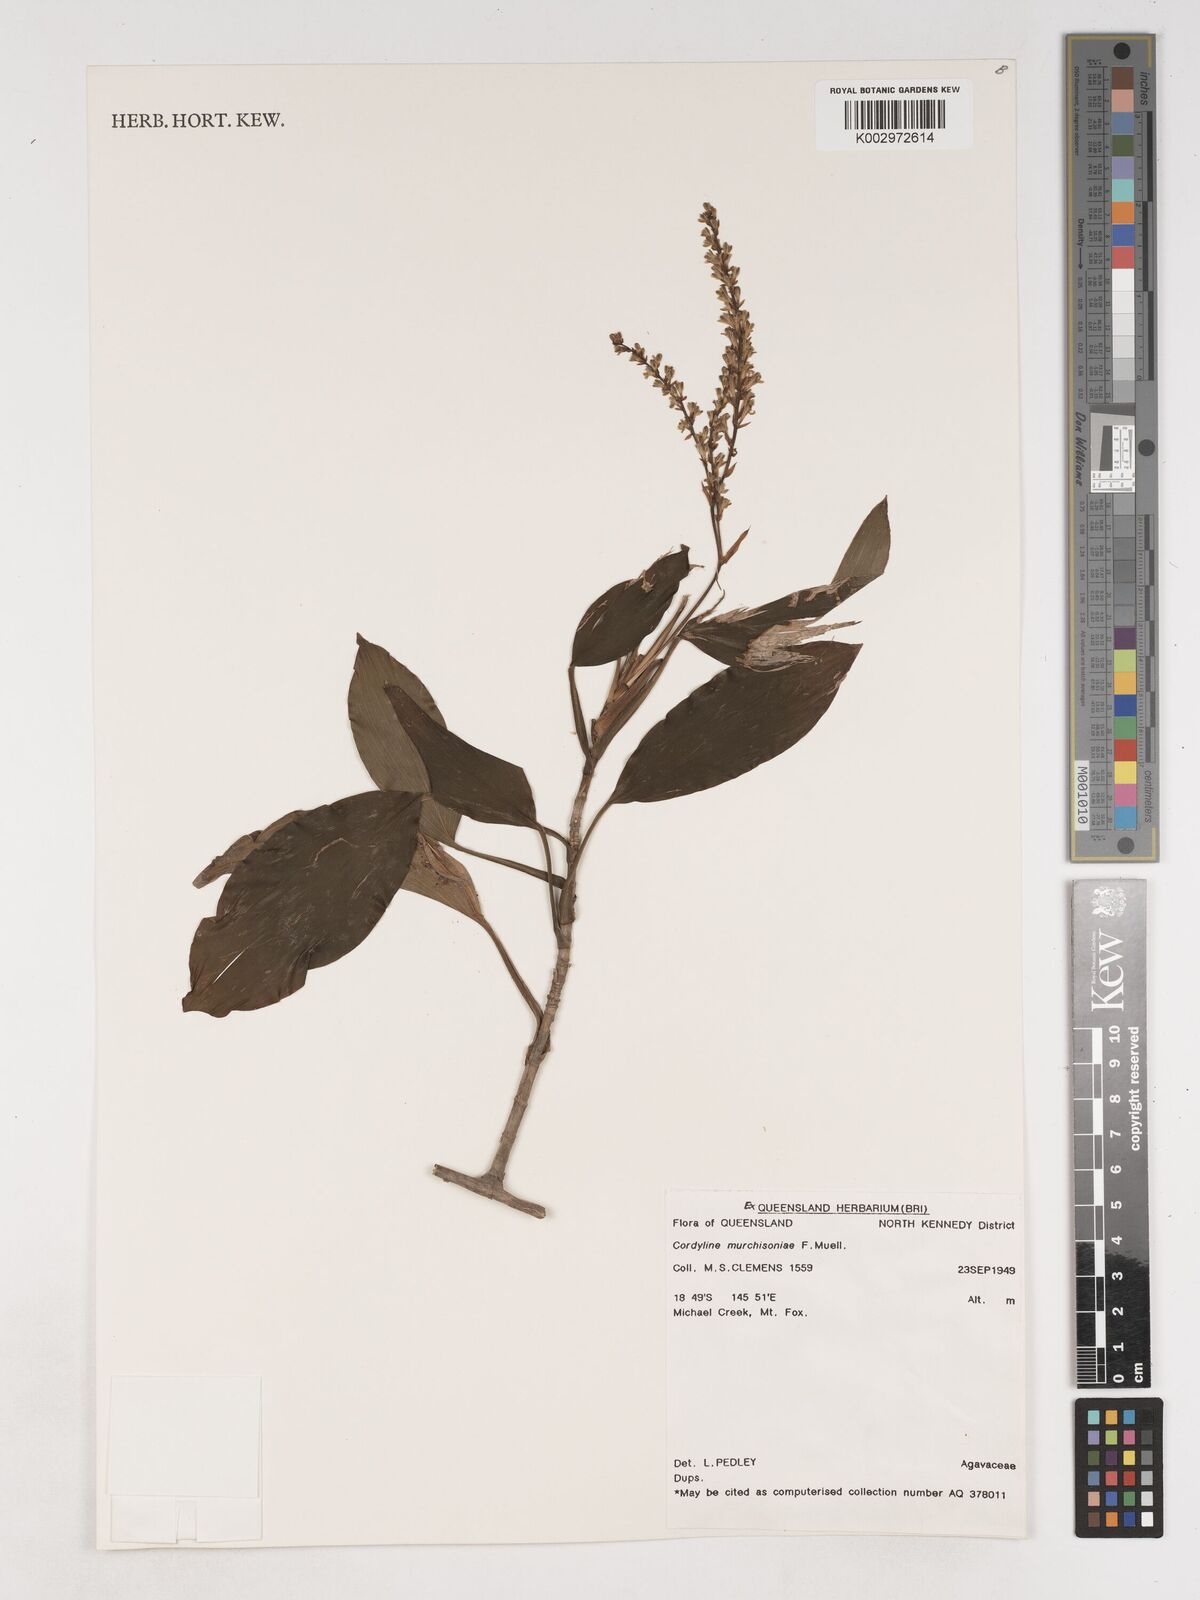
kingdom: Plantae
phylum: Tracheophyta
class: Liliopsida
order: Asparagales
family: Asparagaceae
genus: Cordyline
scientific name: Cordyline murchisoniae
